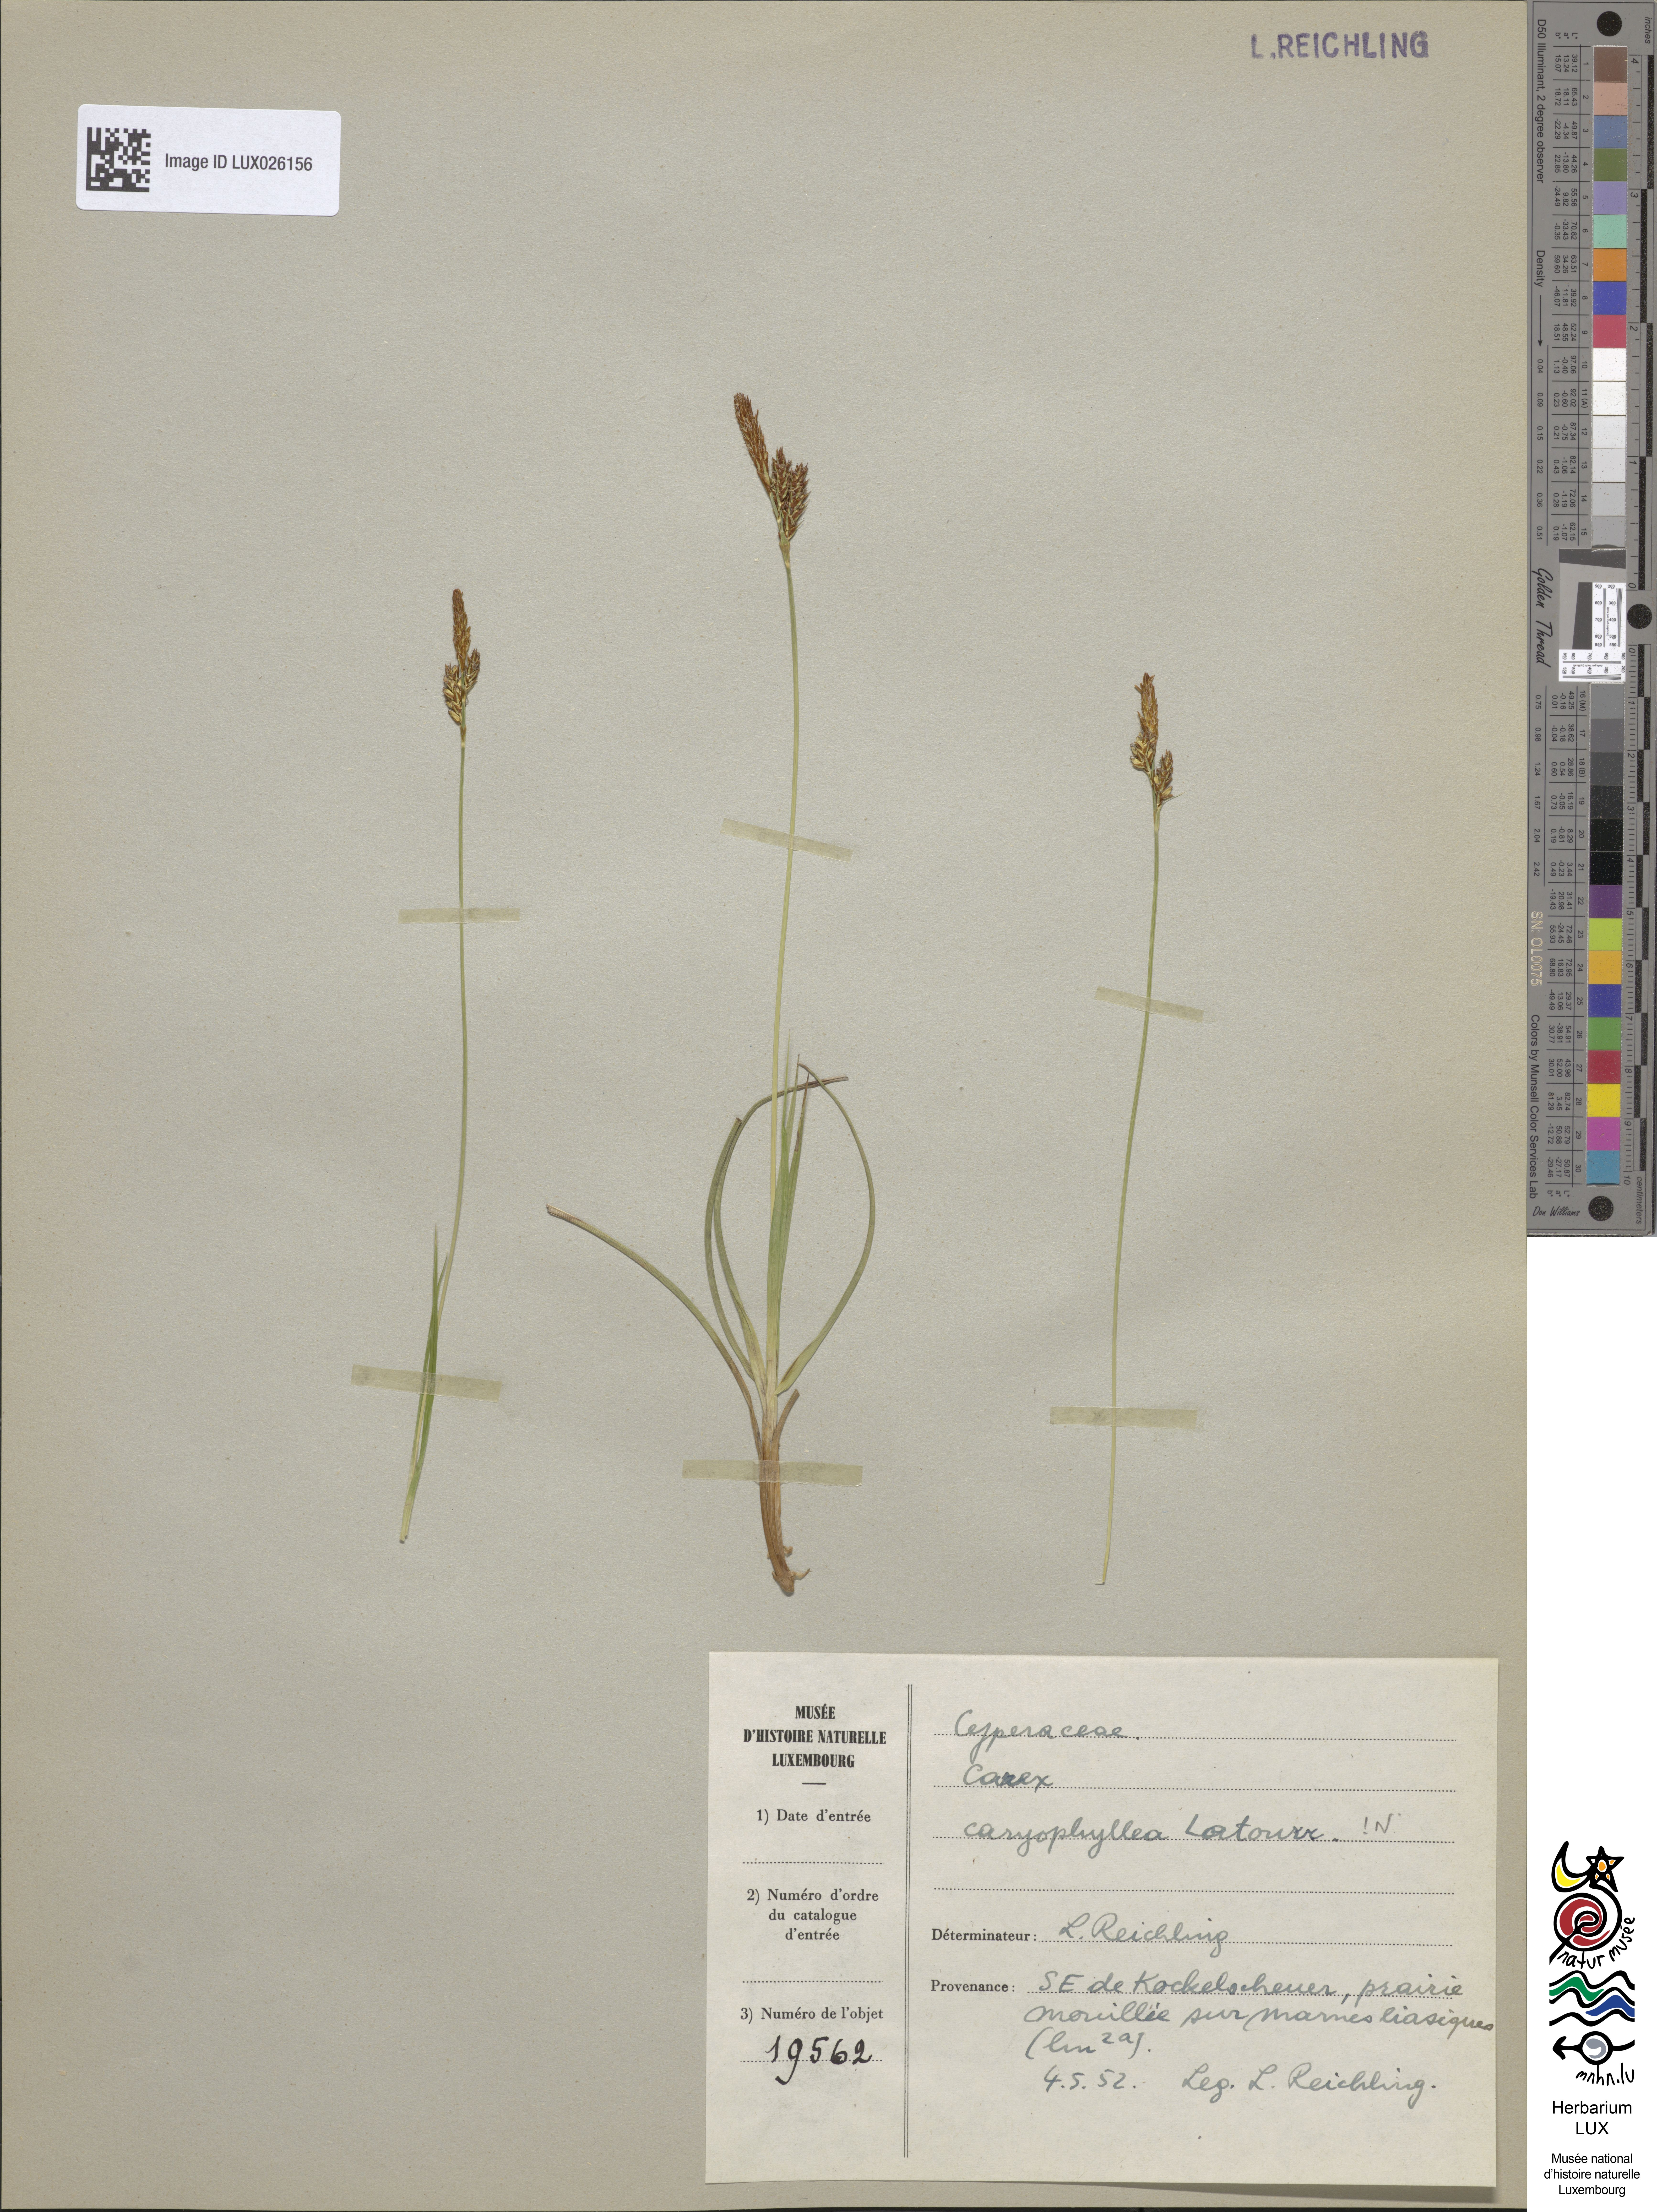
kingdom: Plantae
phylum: Tracheophyta
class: Liliopsida
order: Poales
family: Cyperaceae
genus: Carex
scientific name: Carex caryophyllea
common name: Spring sedge
